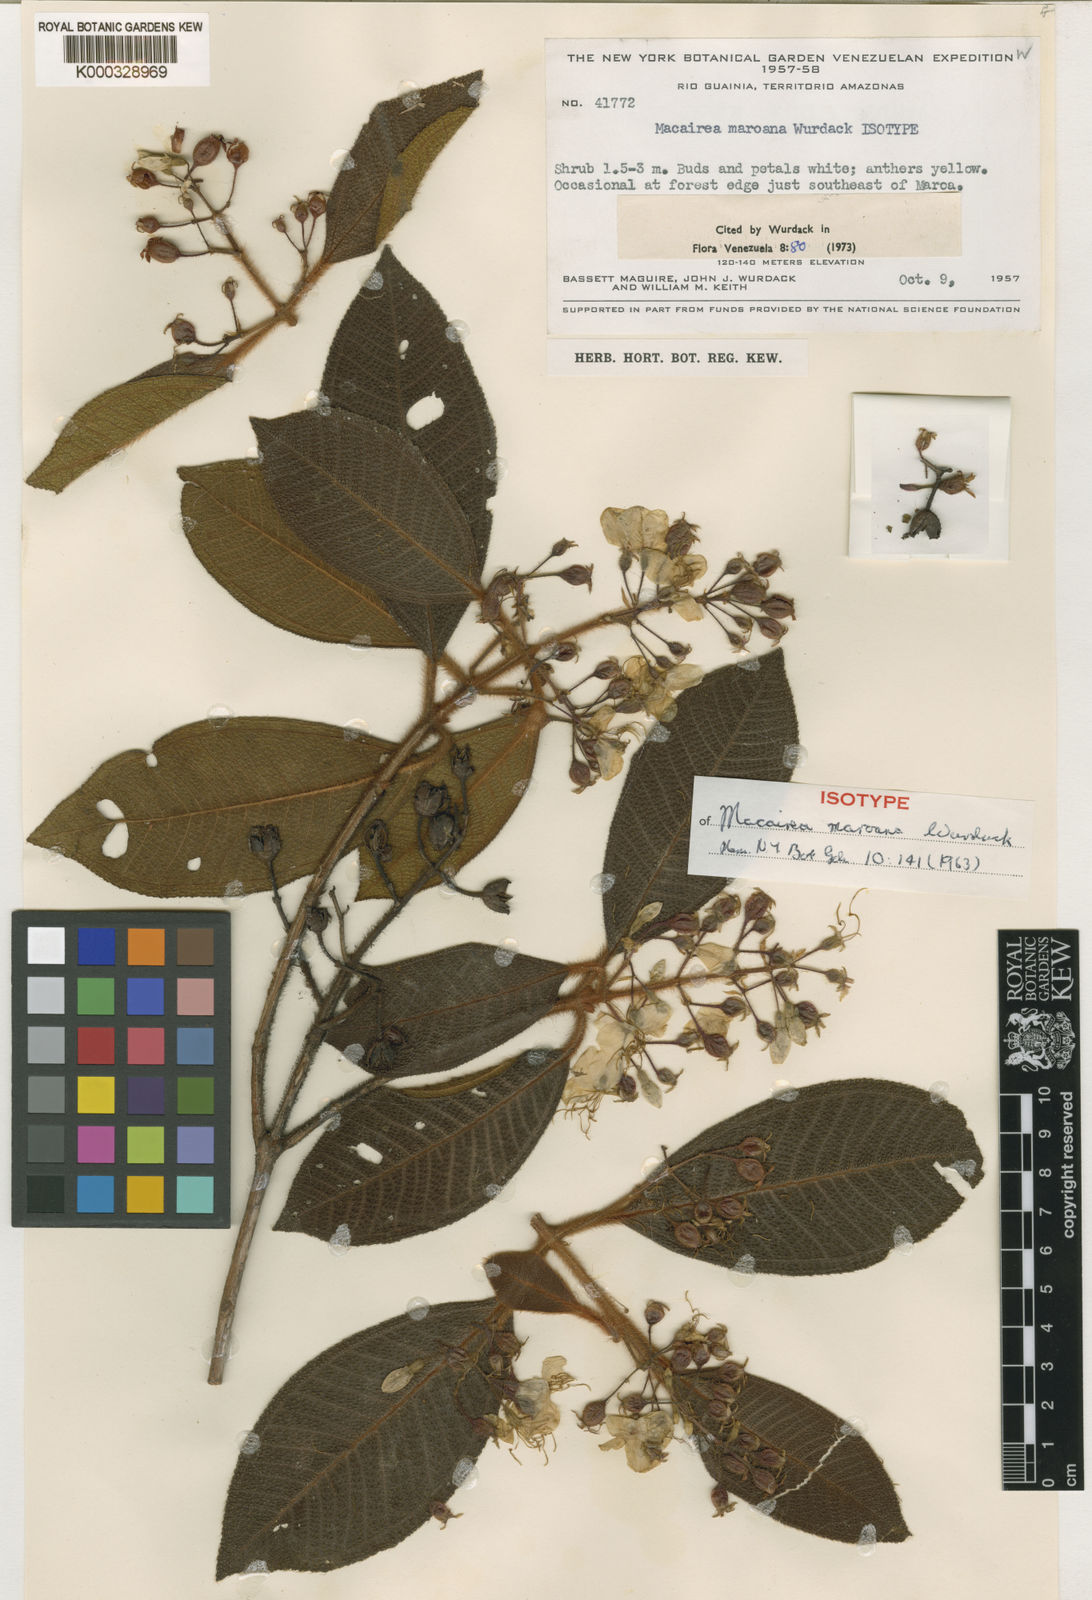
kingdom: Plantae
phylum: Tracheophyta
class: Magnoliopsida
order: Myrtales
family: Melastomataceae
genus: Macairea
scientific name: Macairea maroana
